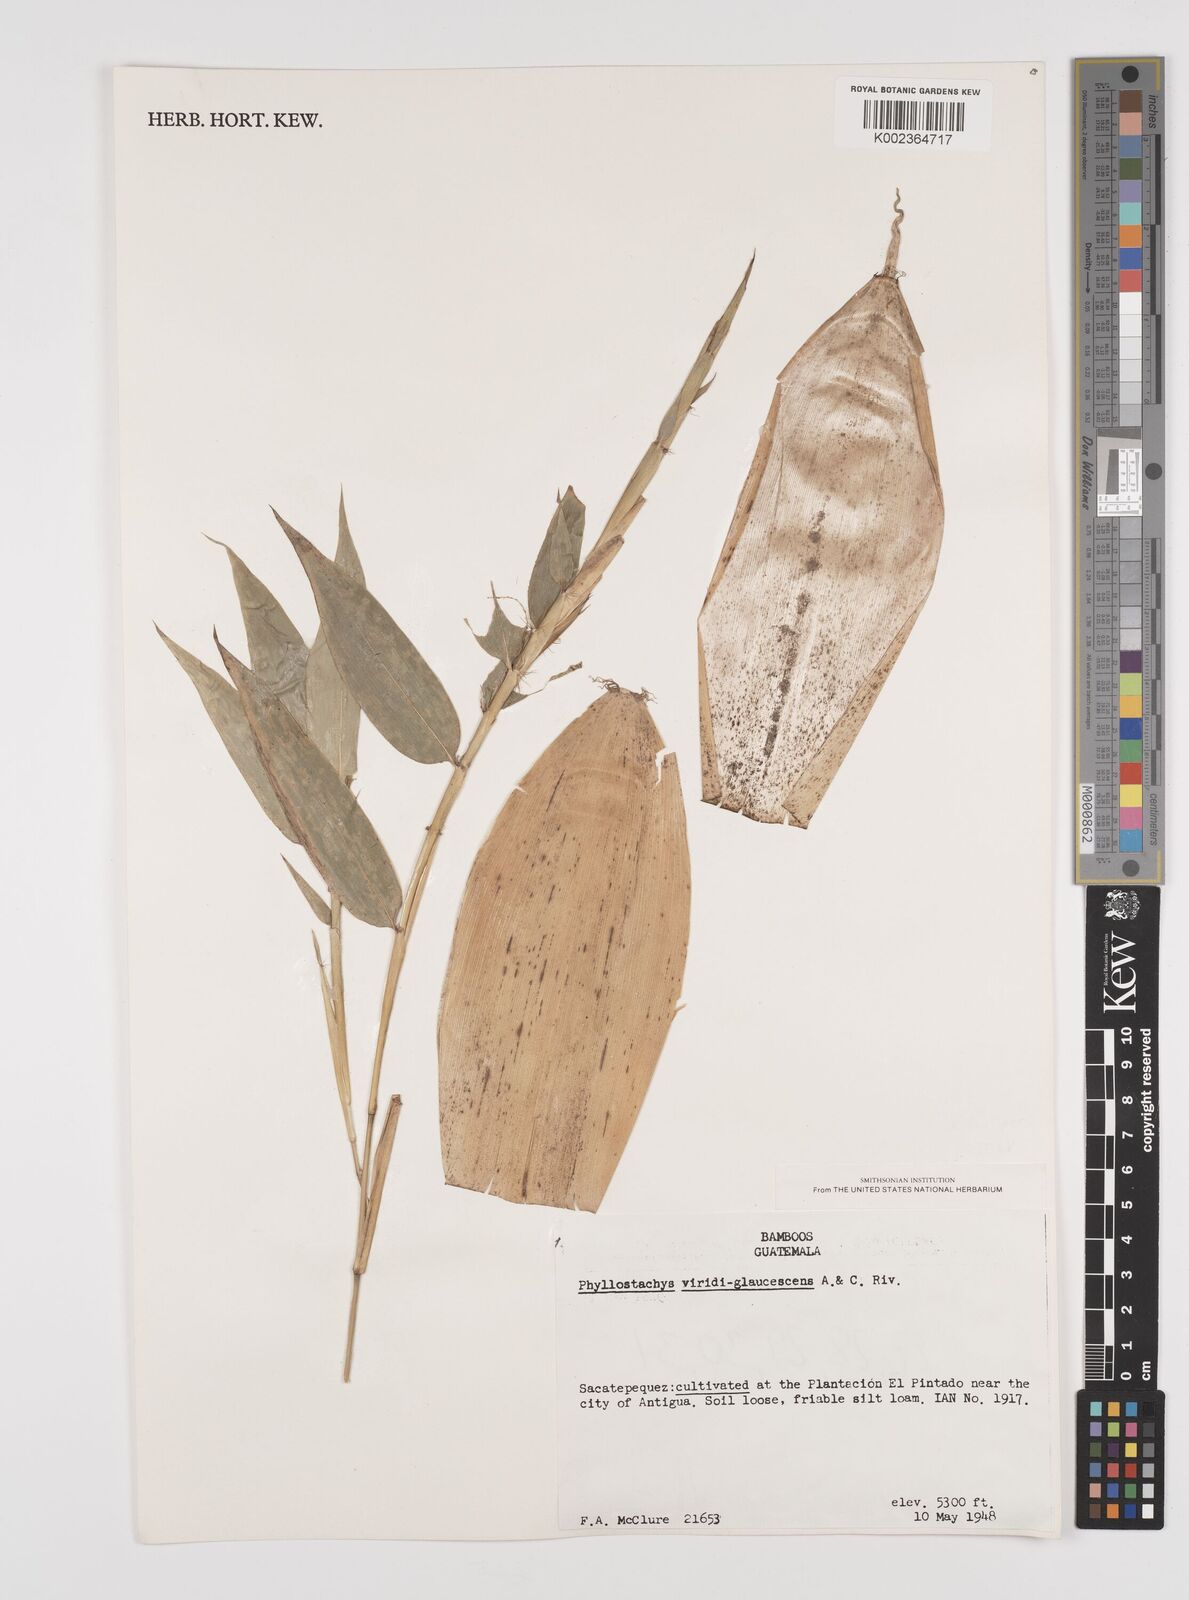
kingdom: Plantae
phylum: Tracheophyta
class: Liliopsida
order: Poales
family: Poaceae
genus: Phyllostachys
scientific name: Phyllostachys viridiglaucescens
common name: Greenwax golden bamboo
